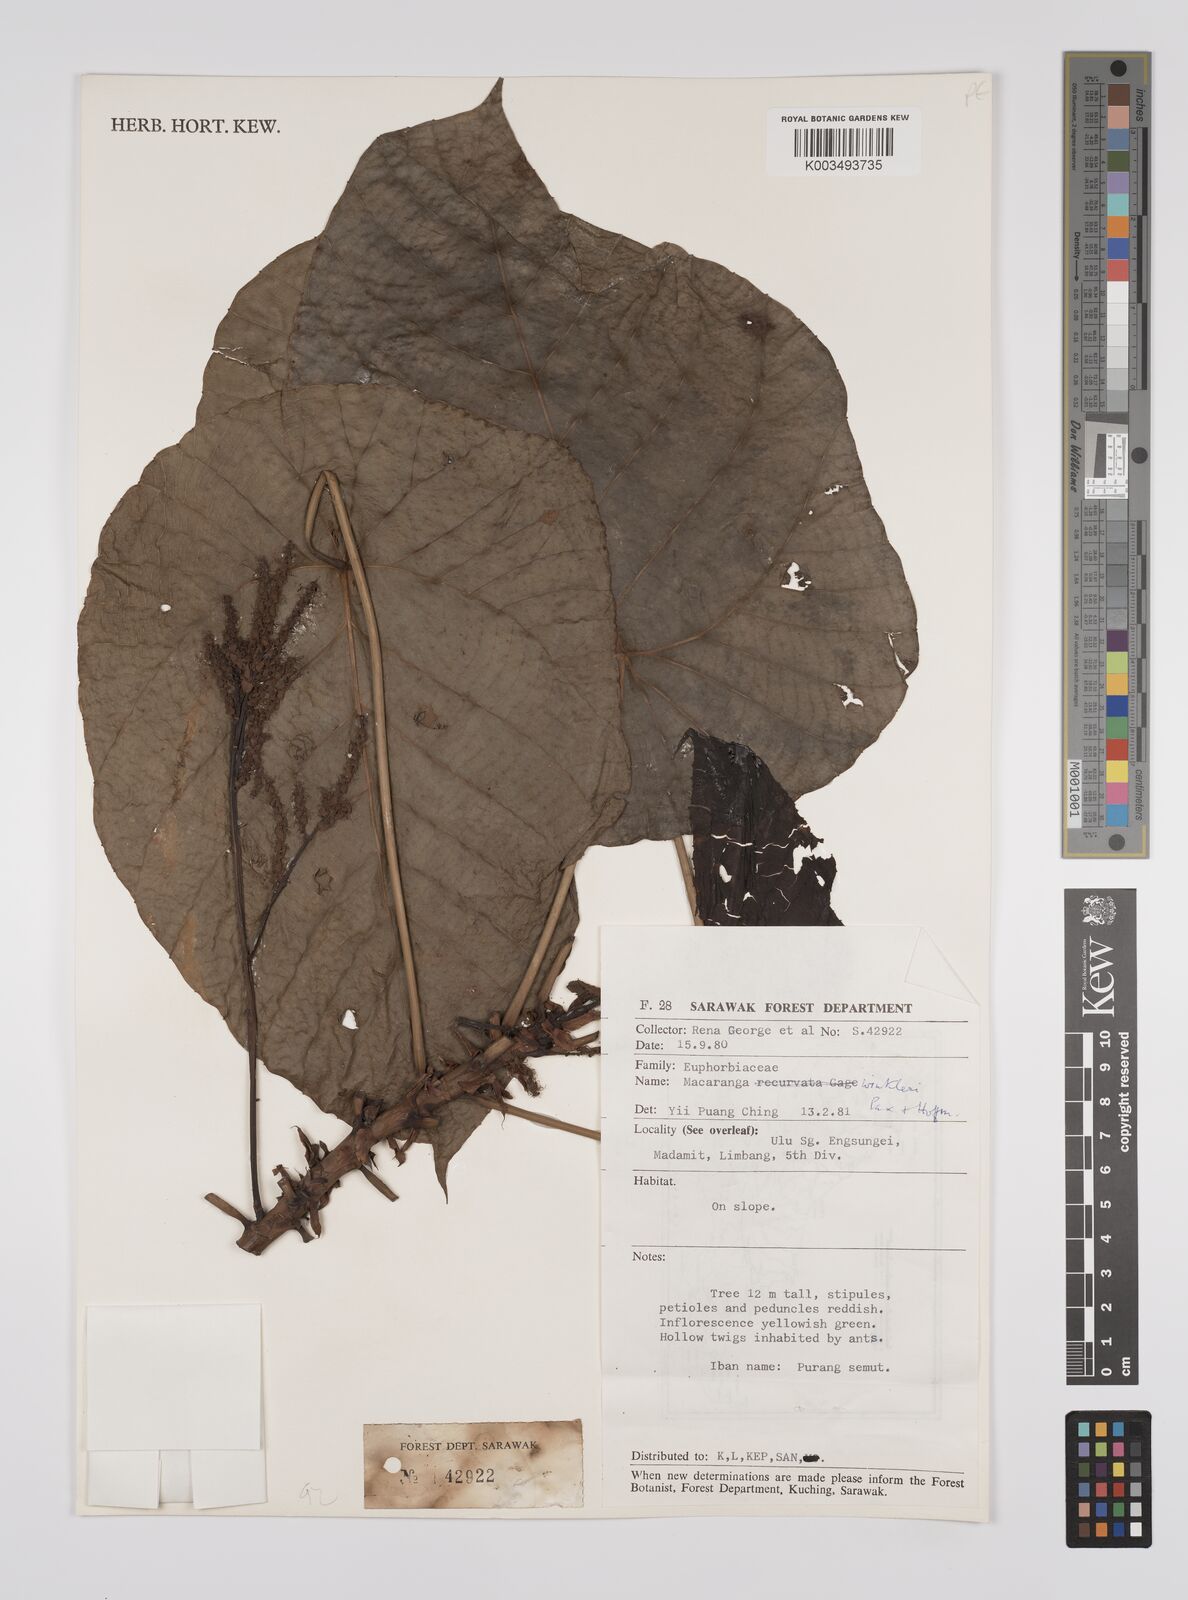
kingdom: Plantae
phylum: Tracheophyta
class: Magnoliopsida
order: Malpighiales
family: Euphorbiaceae
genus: Macaranga
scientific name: Macaranga winkleri
